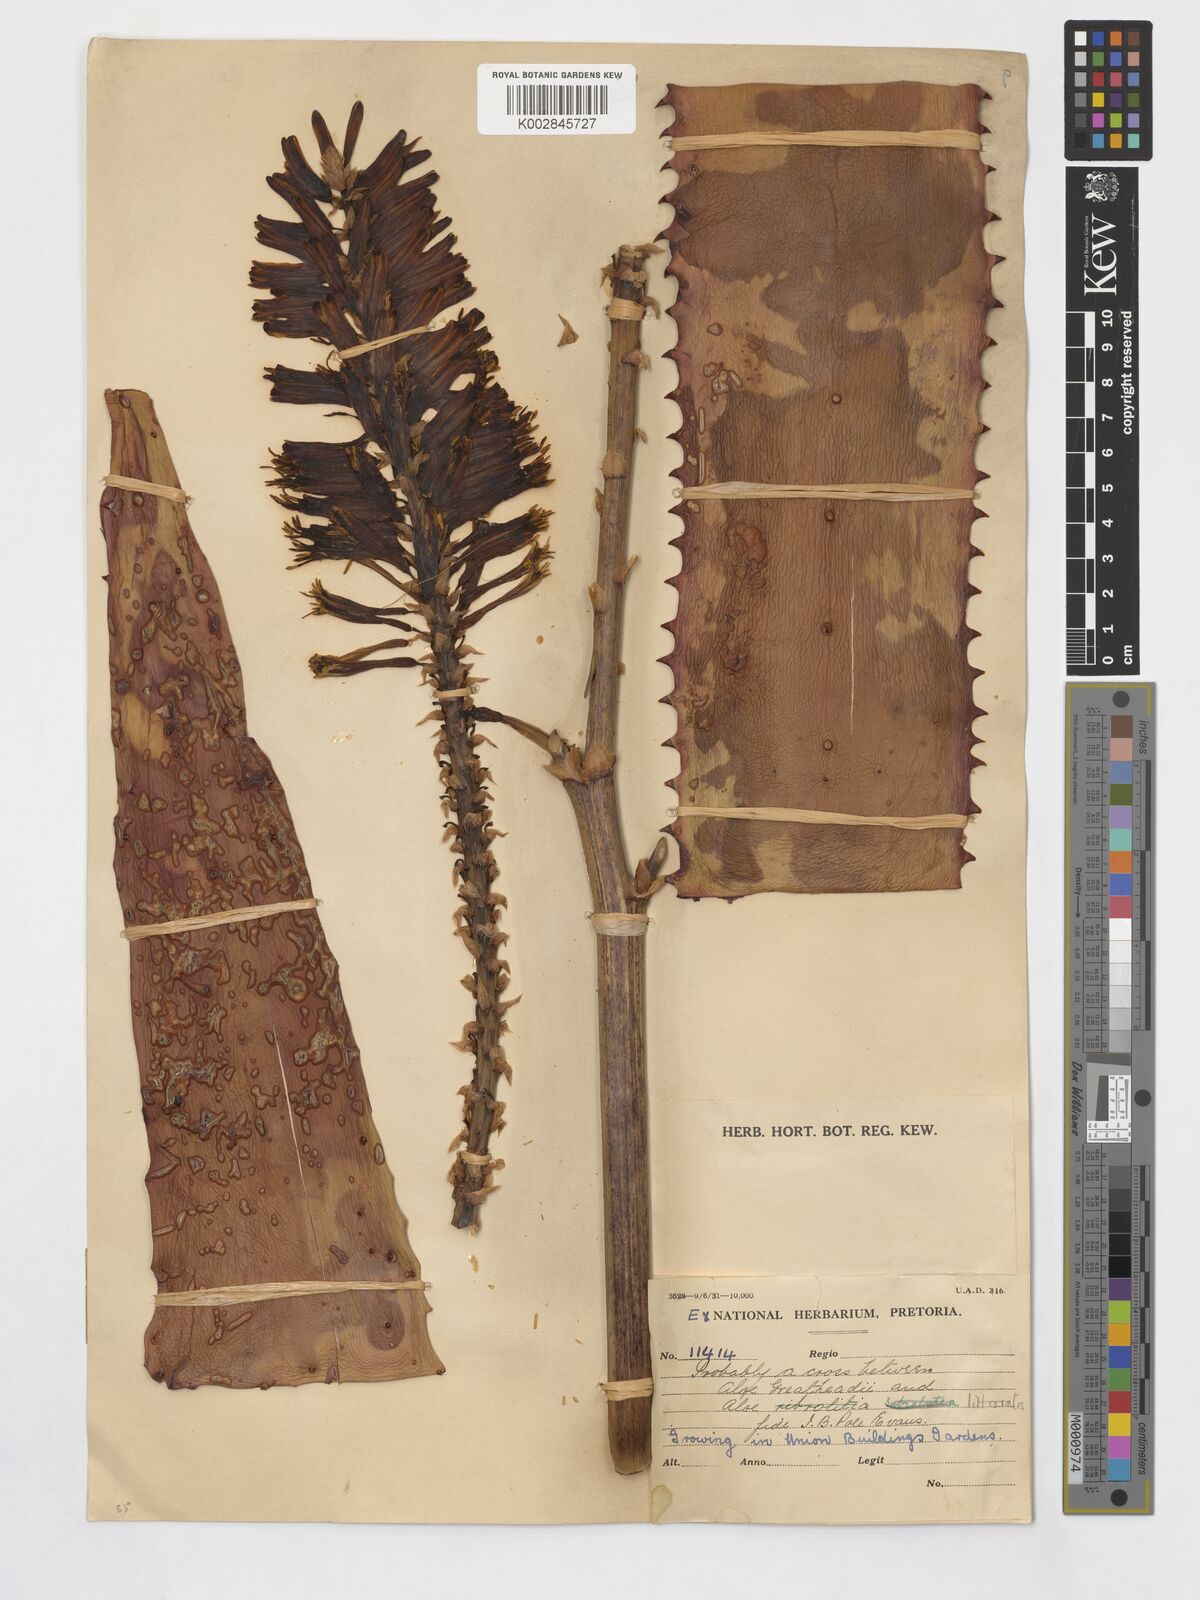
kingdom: Plantae
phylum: Tracheophyta
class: Liliopsida
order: Asparagales
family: Asphodelaceae
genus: Aloe
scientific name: Aloe
